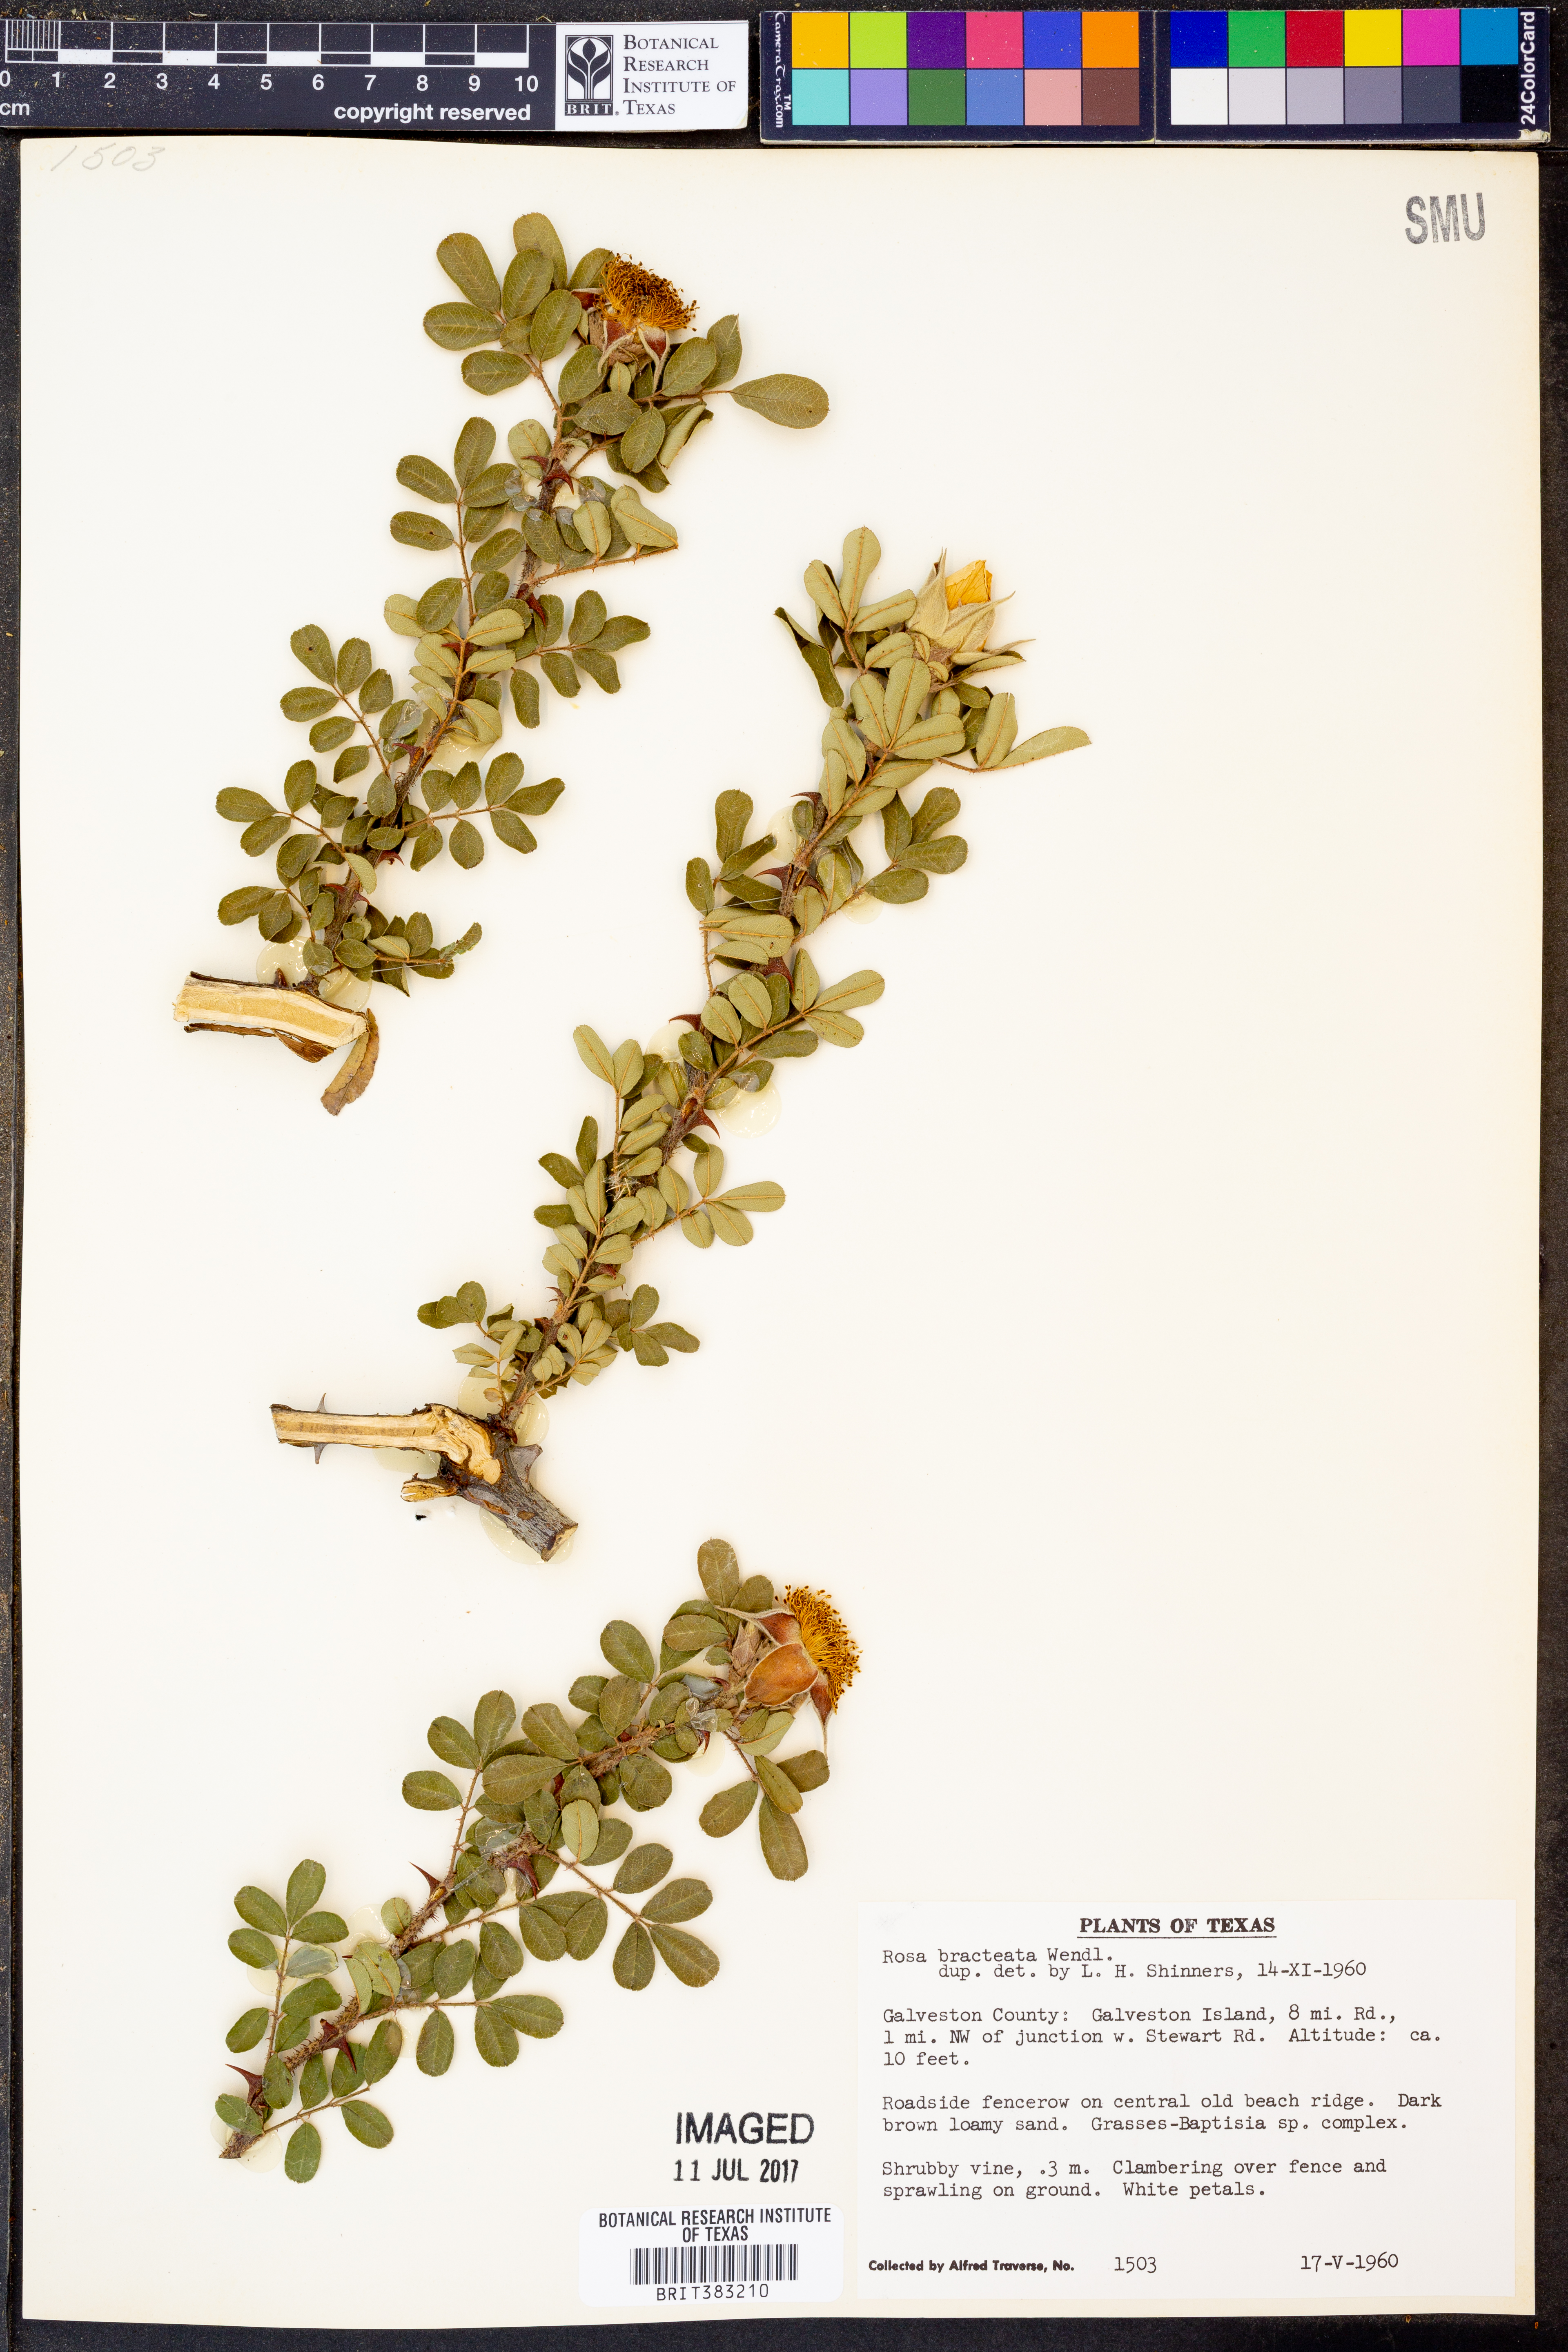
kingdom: Plantae
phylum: Tracheophyta
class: Magnoliopsida
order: Rosales
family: Rosaceae
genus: Rosa
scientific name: Rosa bracteata
